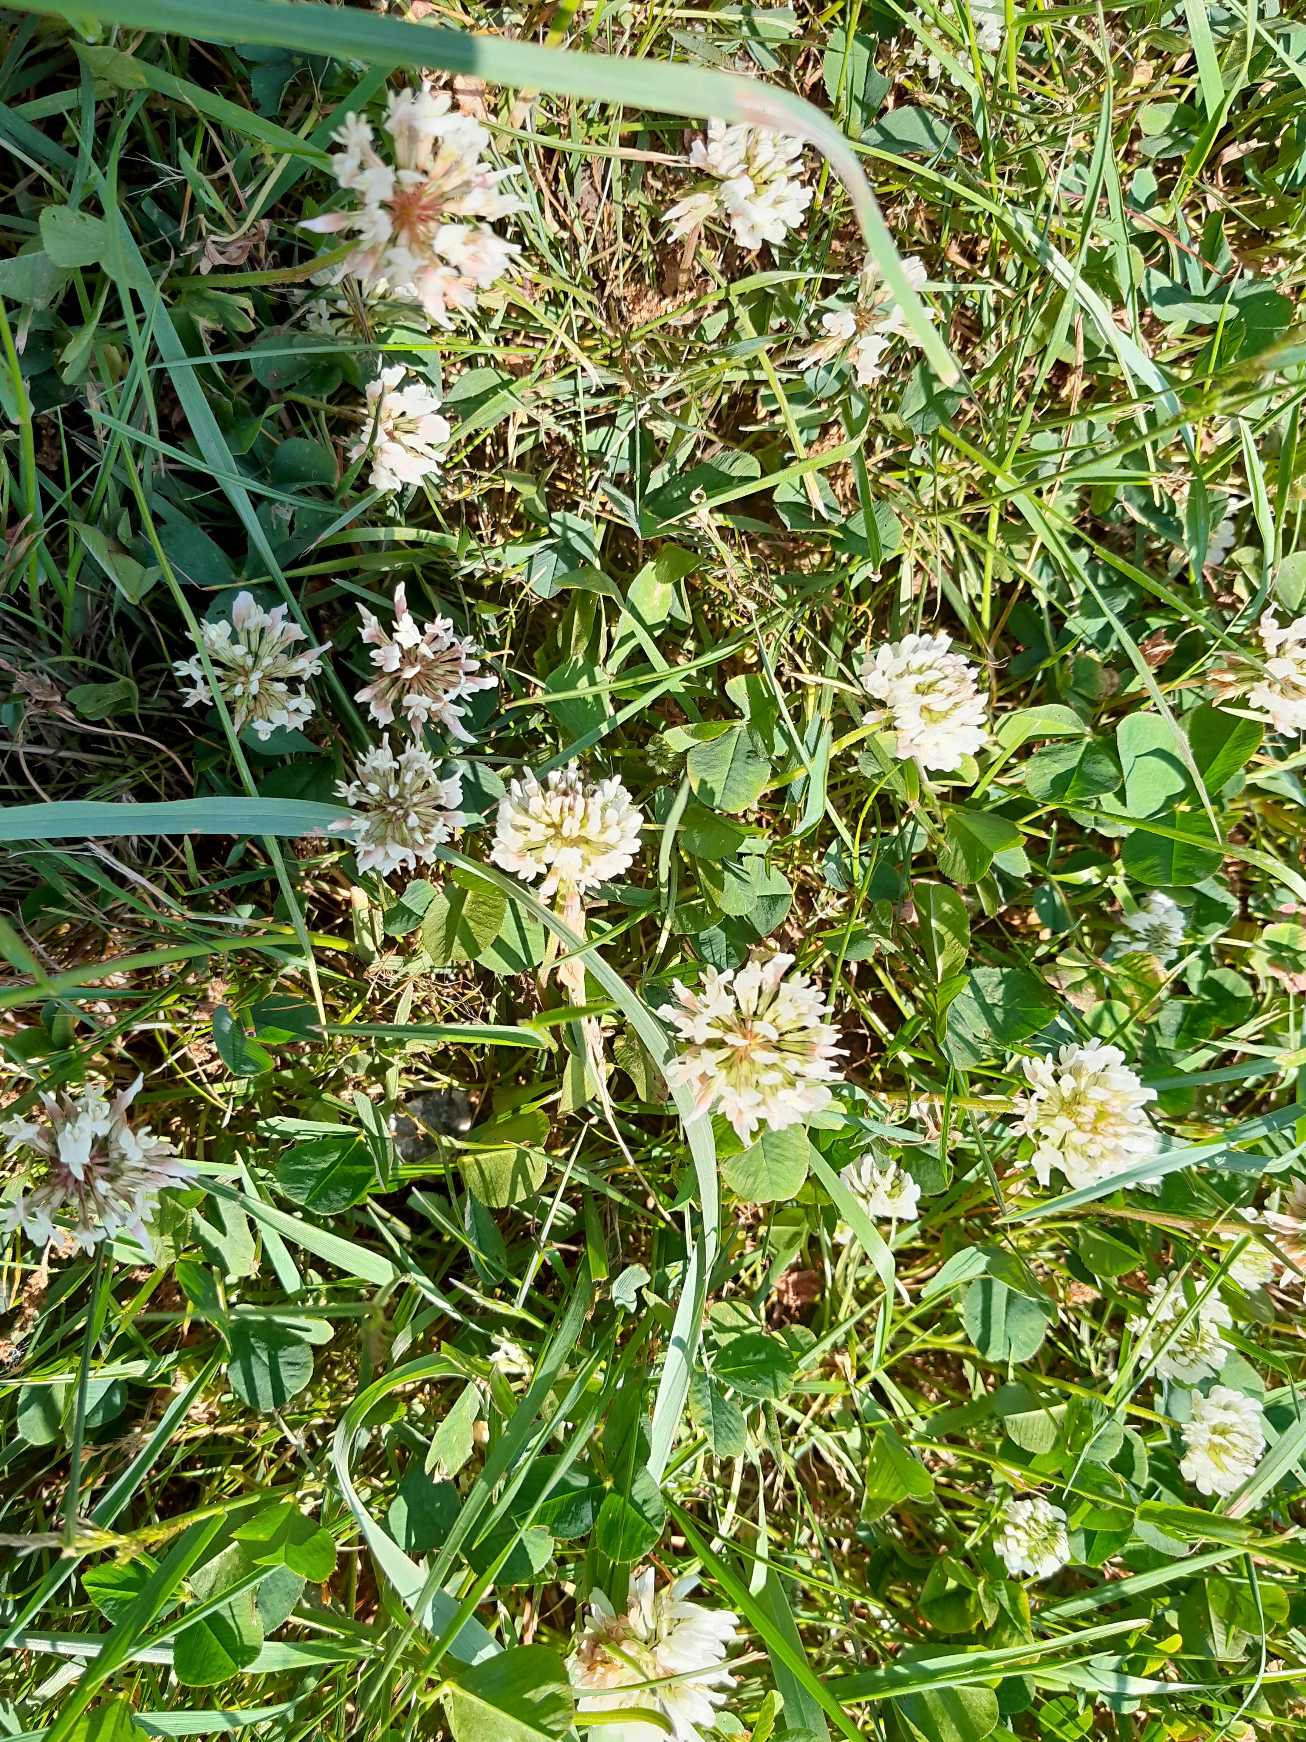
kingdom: Plantae
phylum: Tracheophyta
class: Magnoliopsida
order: Fabales
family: Fabaceae
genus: Trifolium
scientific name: Trifolium repens
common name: Hvid-kløver
